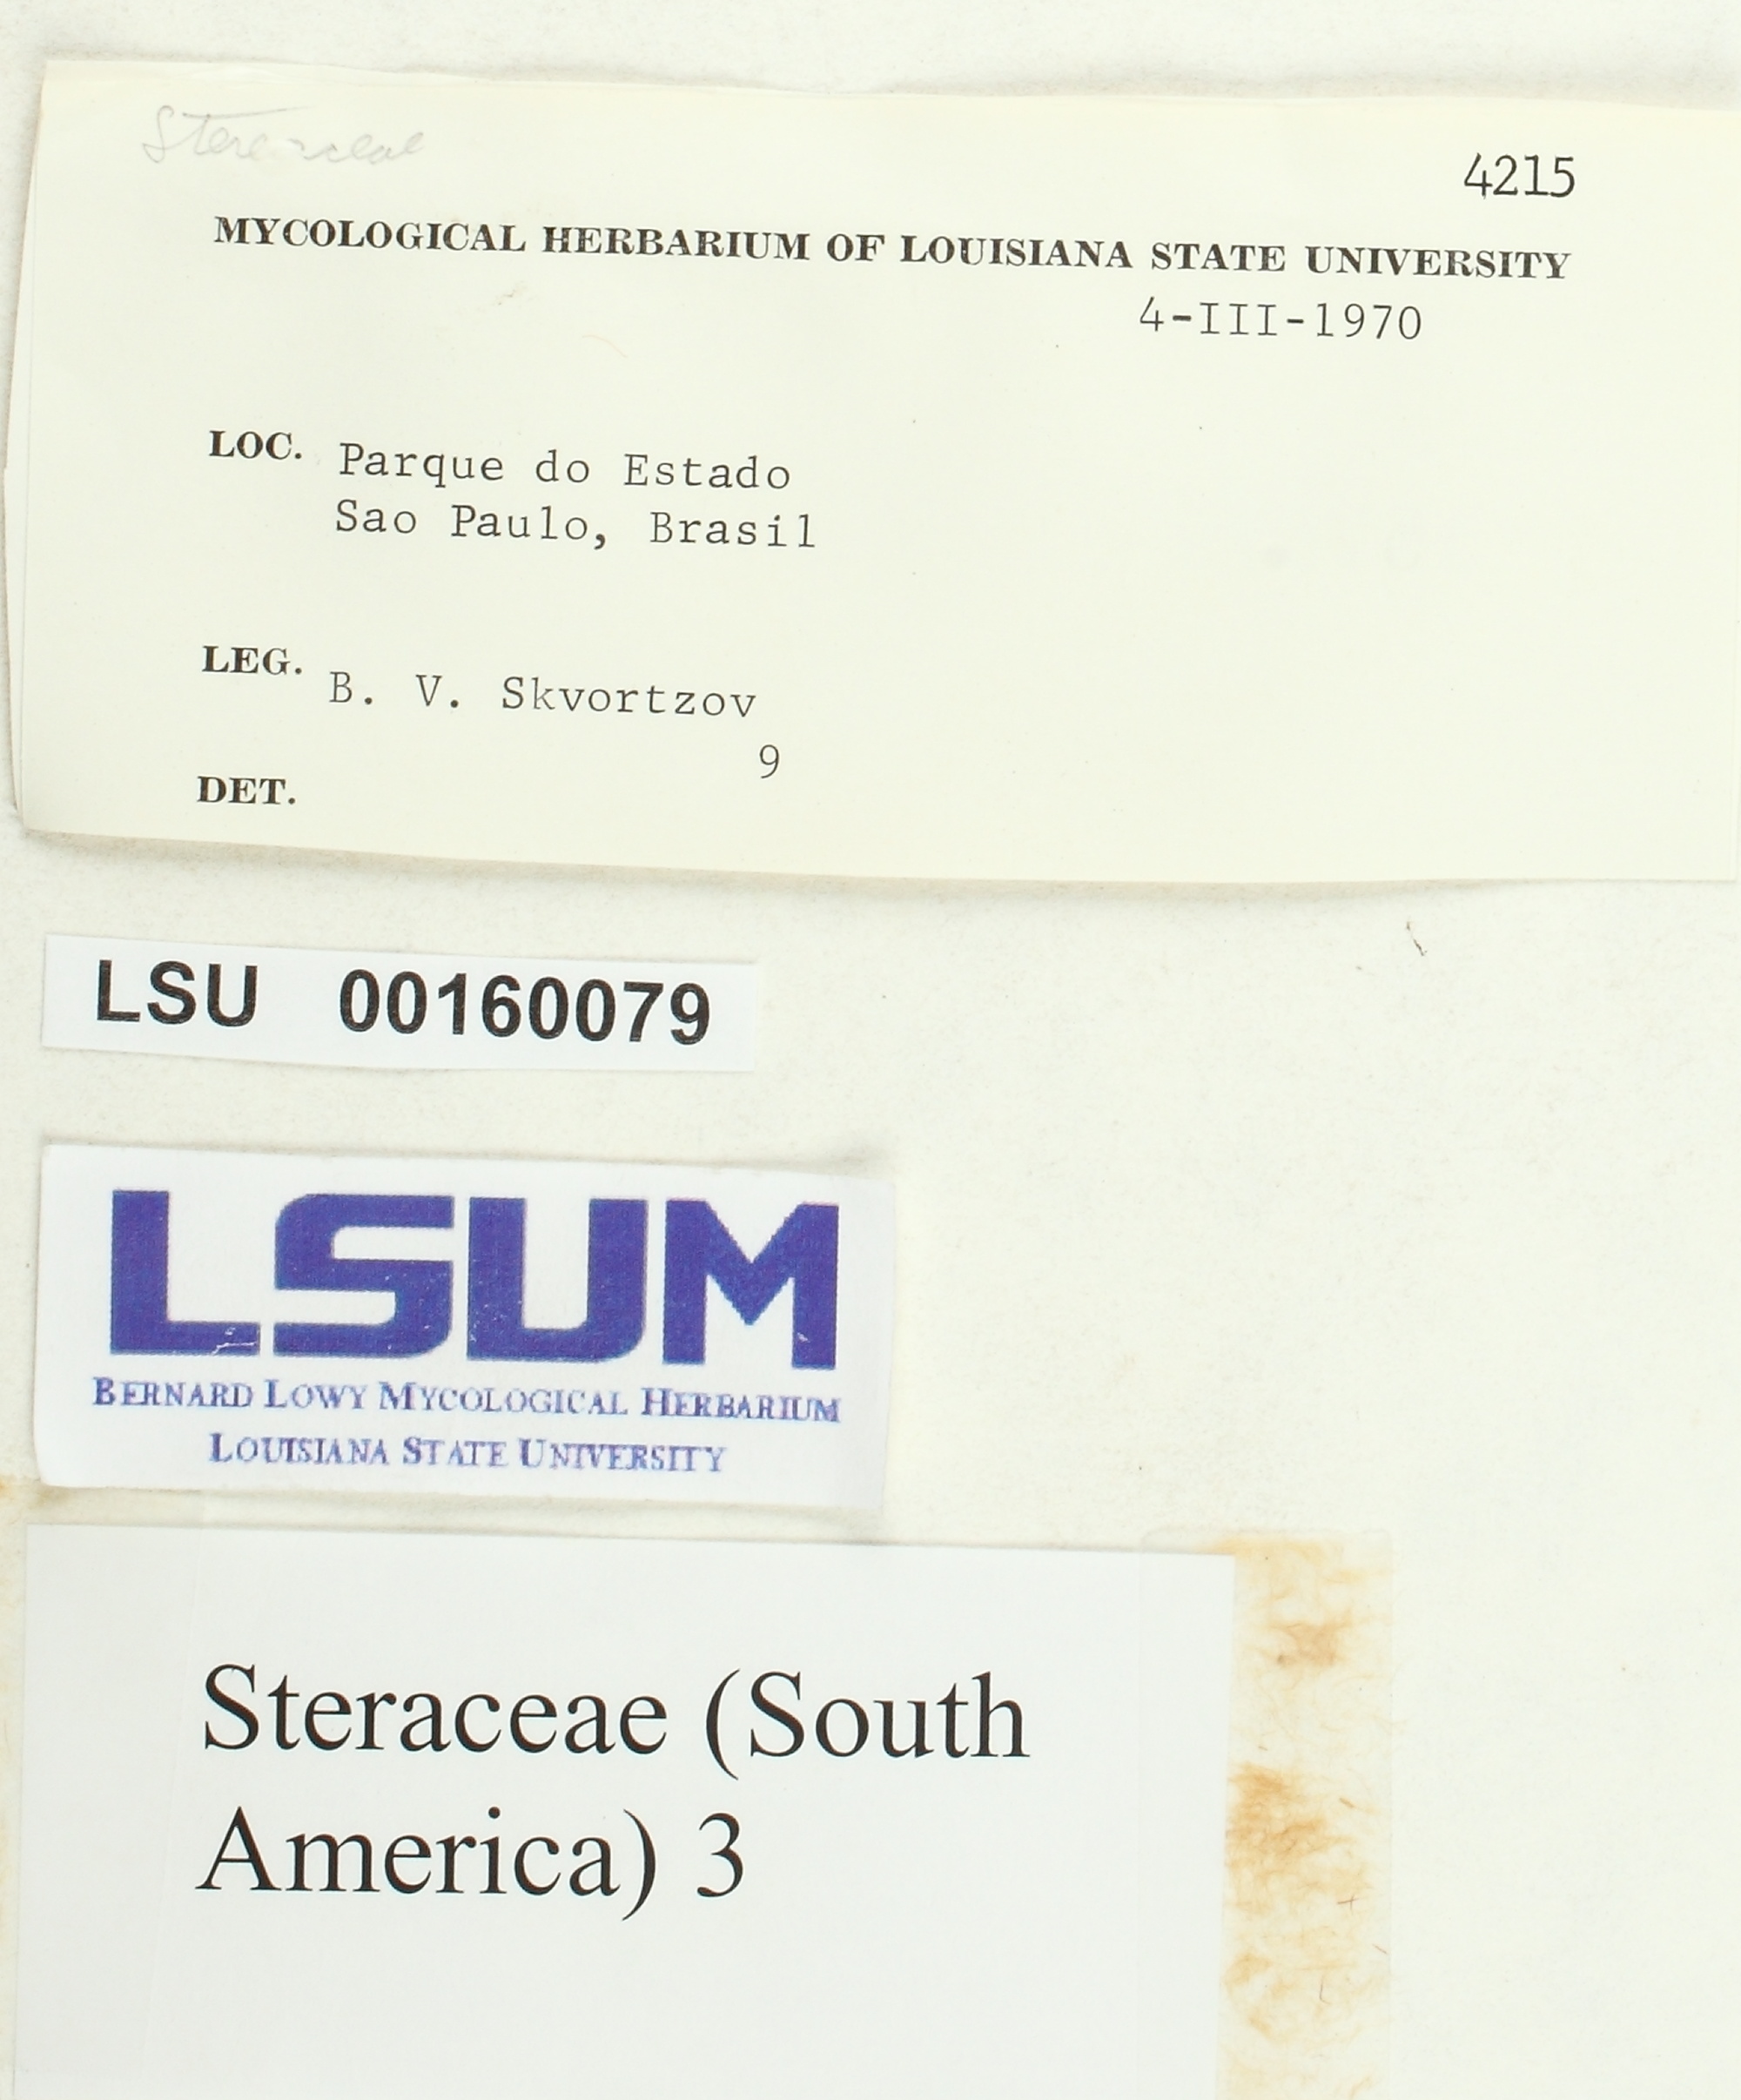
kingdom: Fungi
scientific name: Fungi
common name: Fungi
